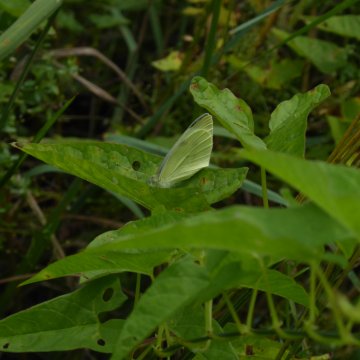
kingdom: Animalia
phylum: Arthropoda
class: Insecta
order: Lepidoptera
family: Pieridae
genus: Pieris
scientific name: Pieris rapae
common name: Cabbage White
